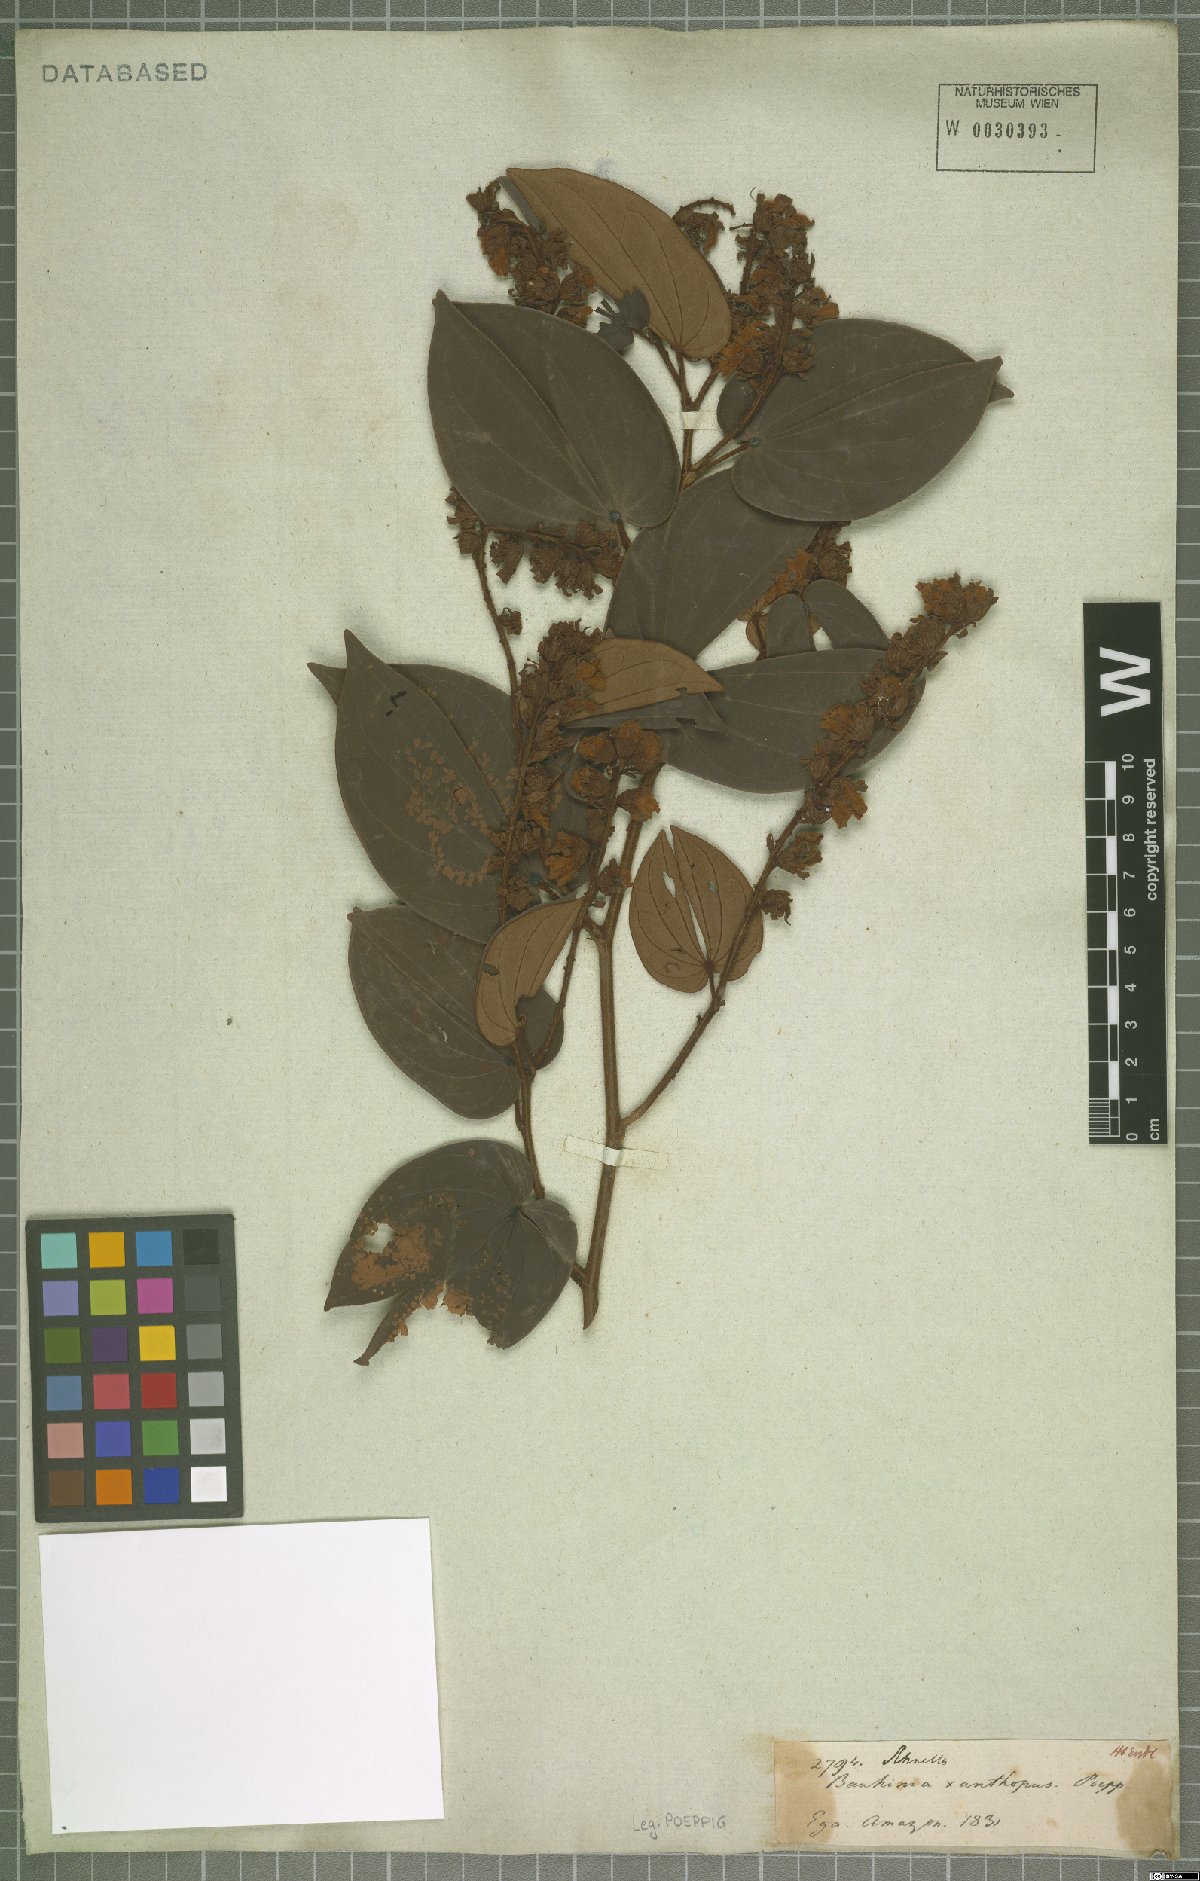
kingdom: Plantae
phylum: Tracheophyta
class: Magnoliopsida
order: Fabales
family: Fabaceae
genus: Bauhinia
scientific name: Bauhinia
